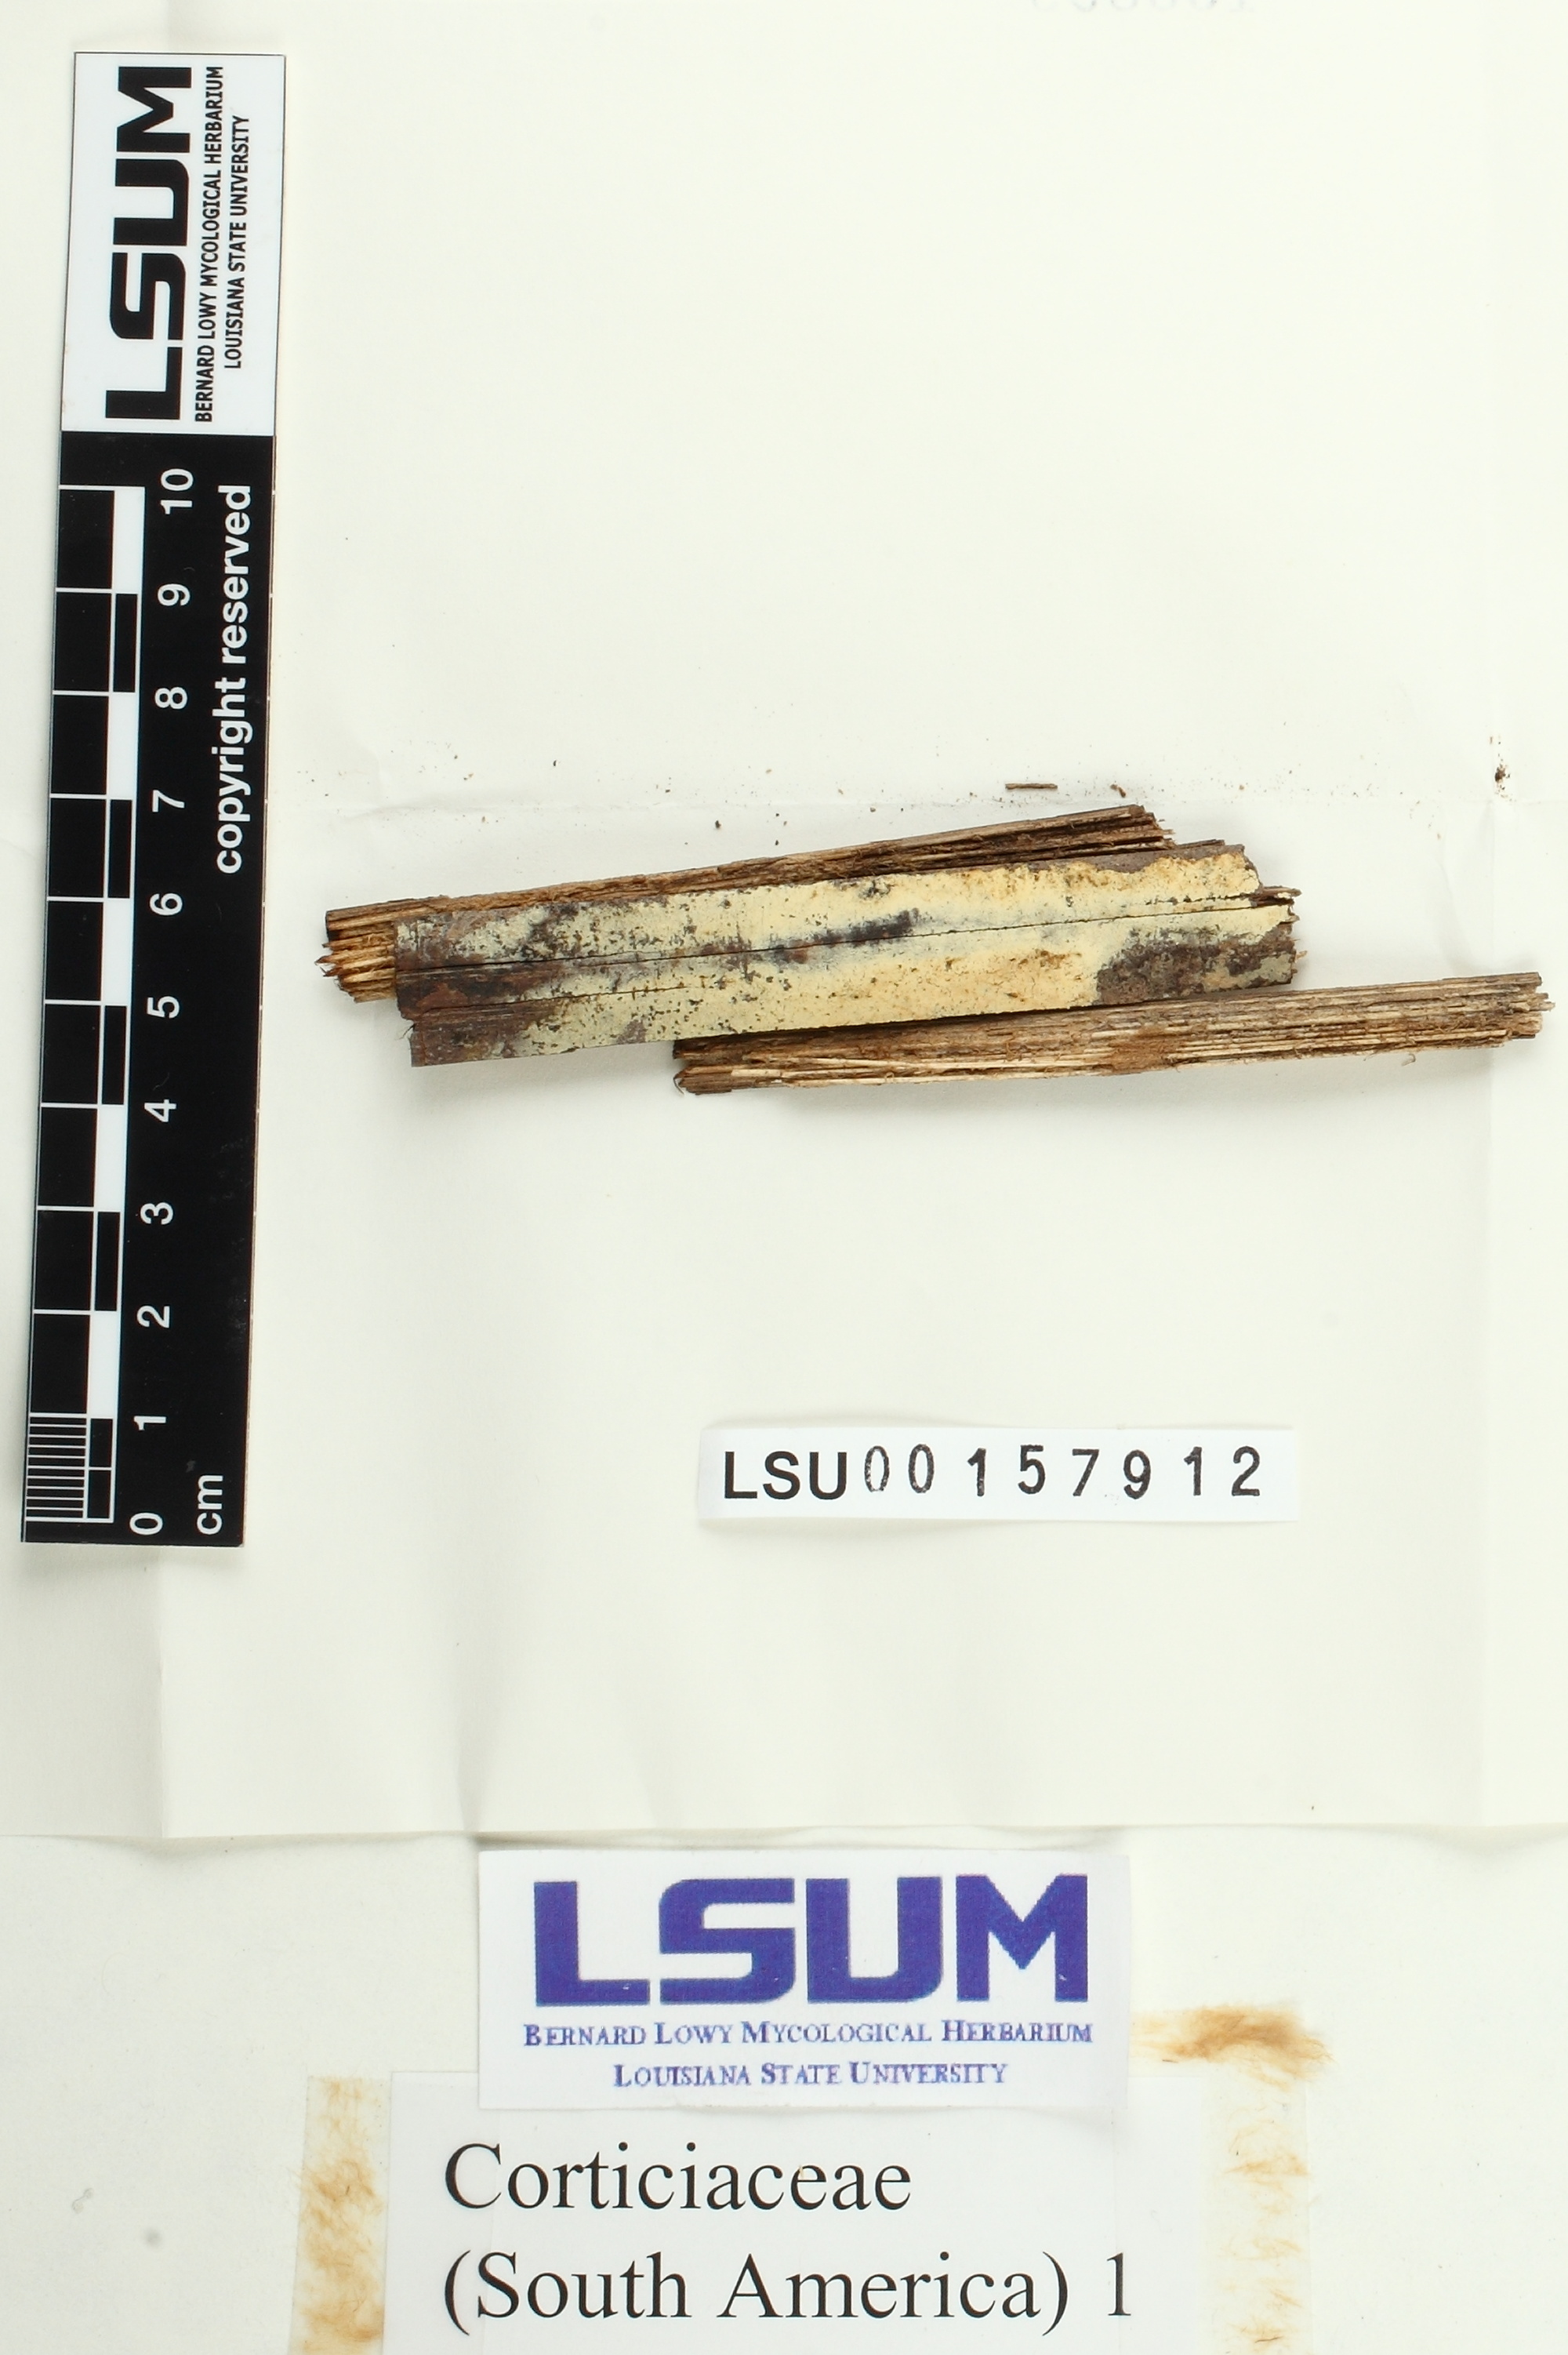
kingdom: Fungi
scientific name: Fungi
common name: Fungi
